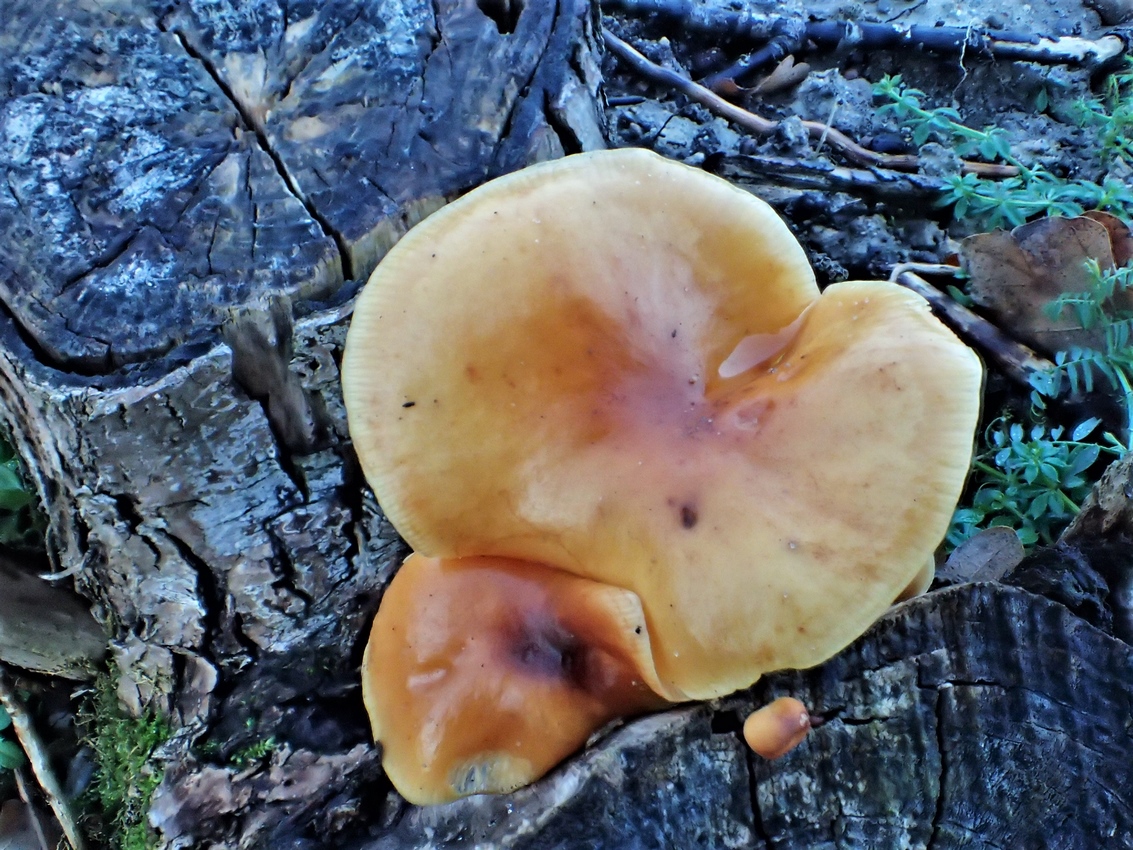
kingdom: Fungi
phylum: Basidiomycota
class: Agaricomycetes
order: Agaricales
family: Physalacriaceae
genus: Flammulina
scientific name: Flammulina
